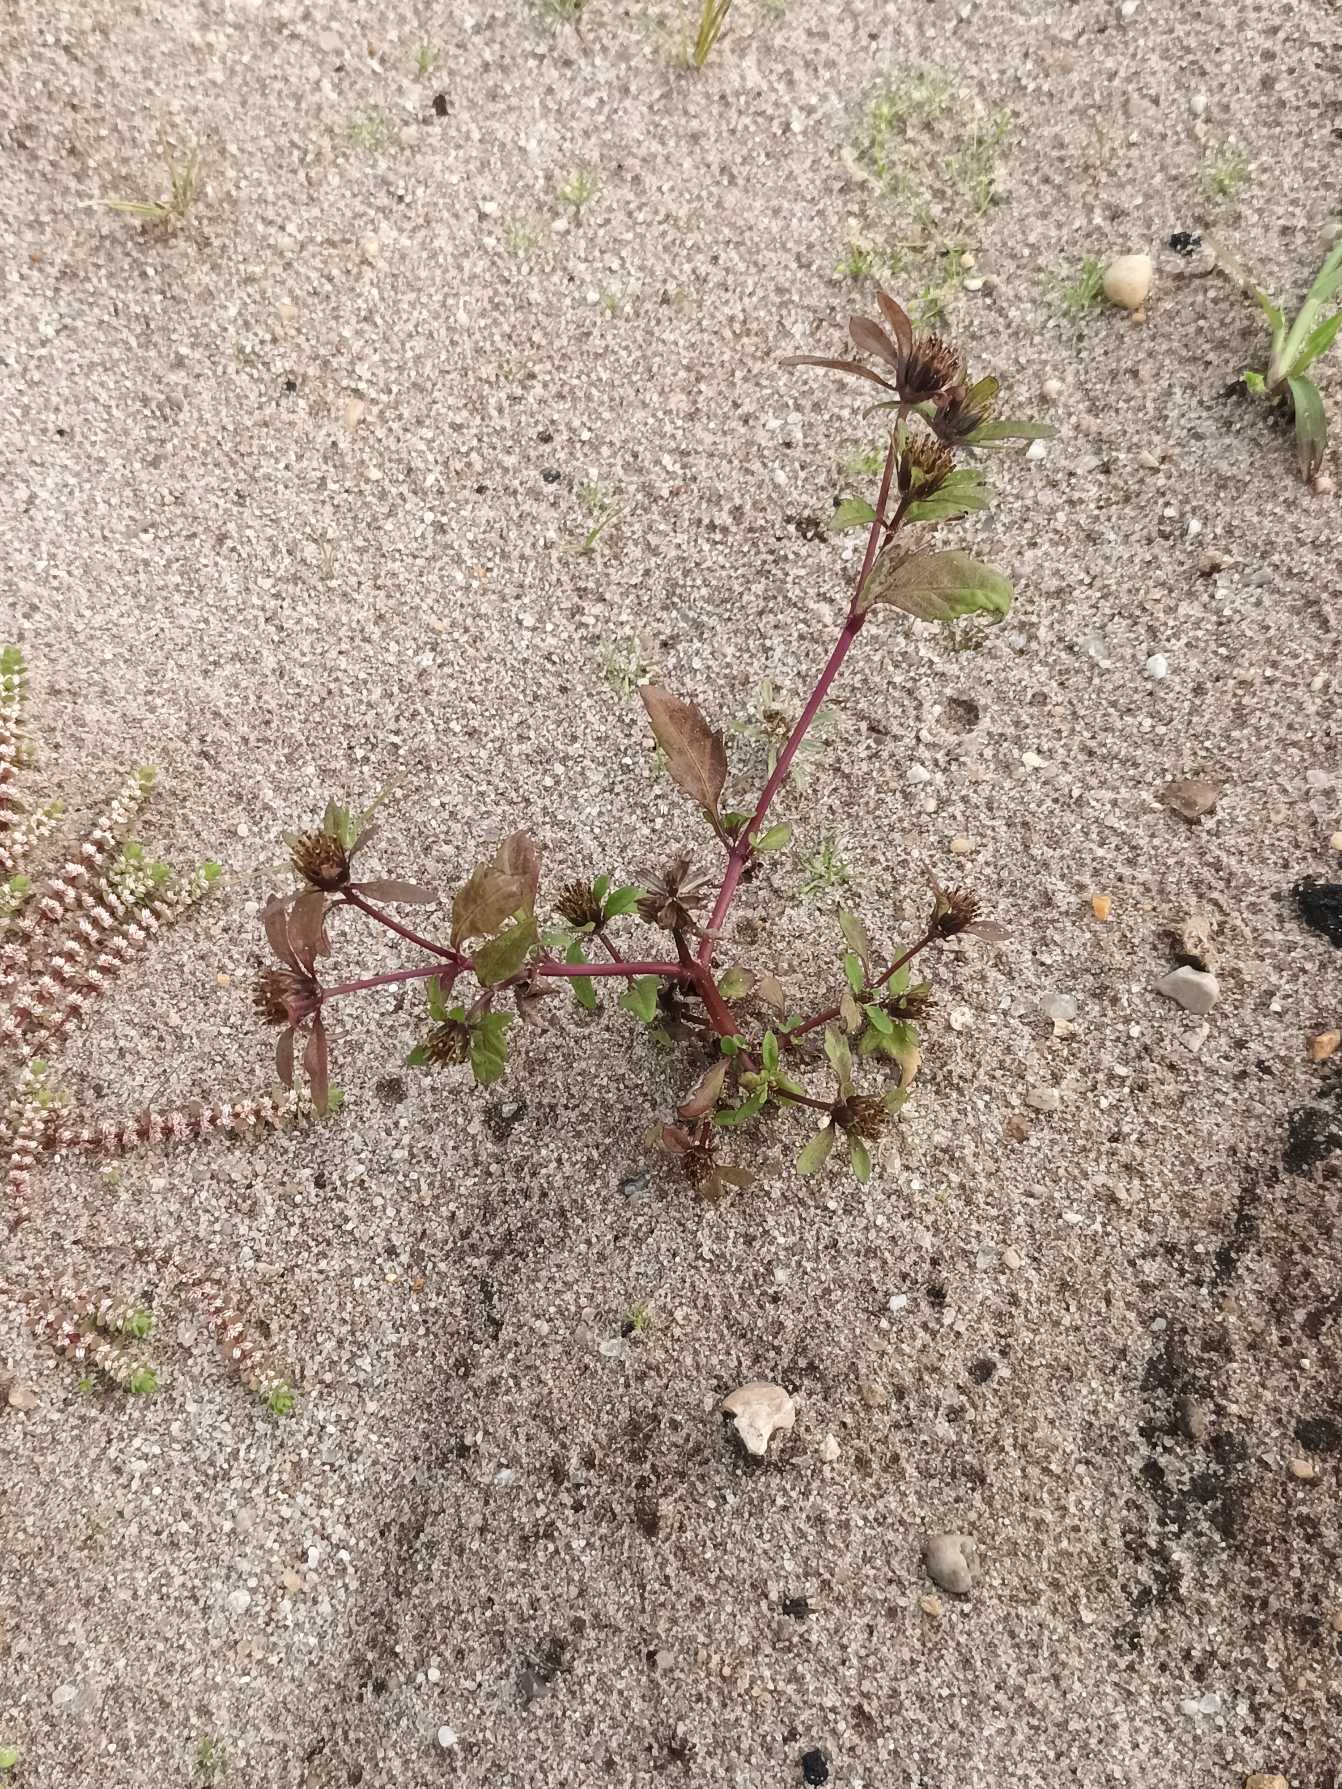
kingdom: Plantae
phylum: Tracheophyta
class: Magnoliopsida
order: Asterales
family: Asteraceae
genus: Bidens
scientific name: Bidens tripartita
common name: Fliget brøndsel
